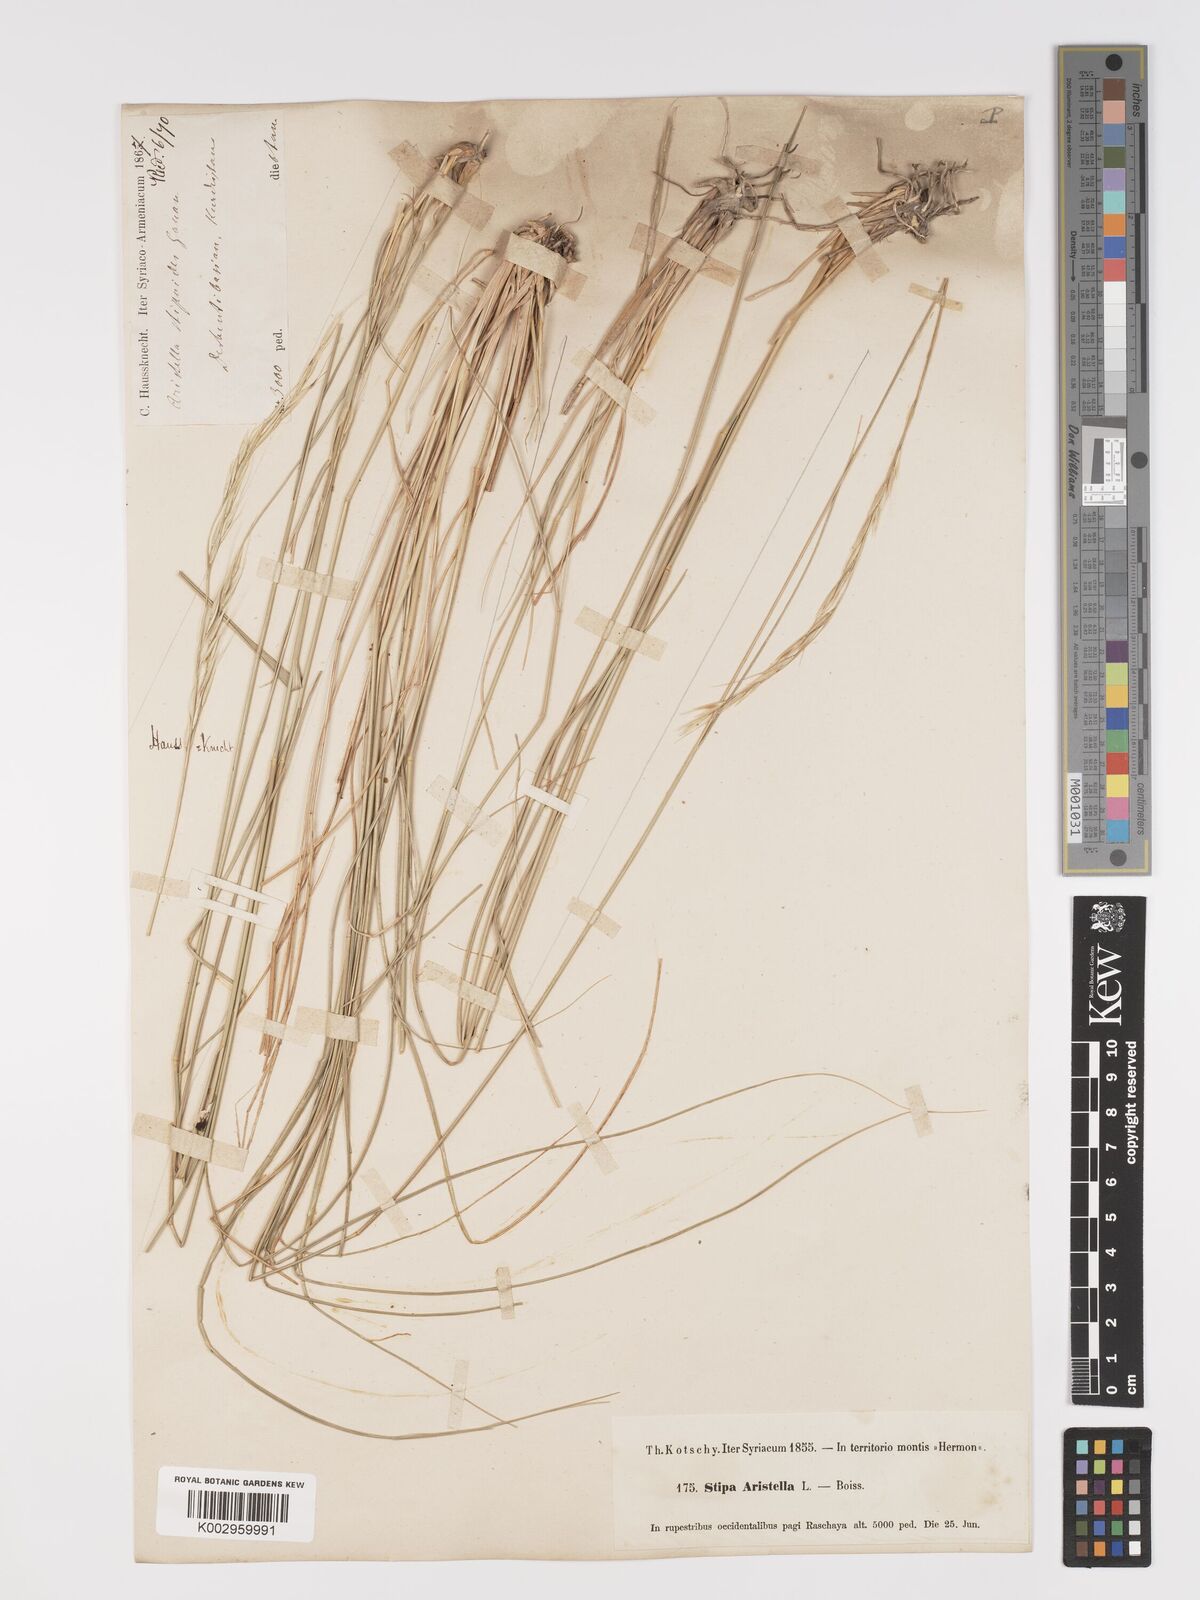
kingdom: Chromista
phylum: Ochrophyta
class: Bacillariophyceae
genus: Aristella
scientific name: Aristella
